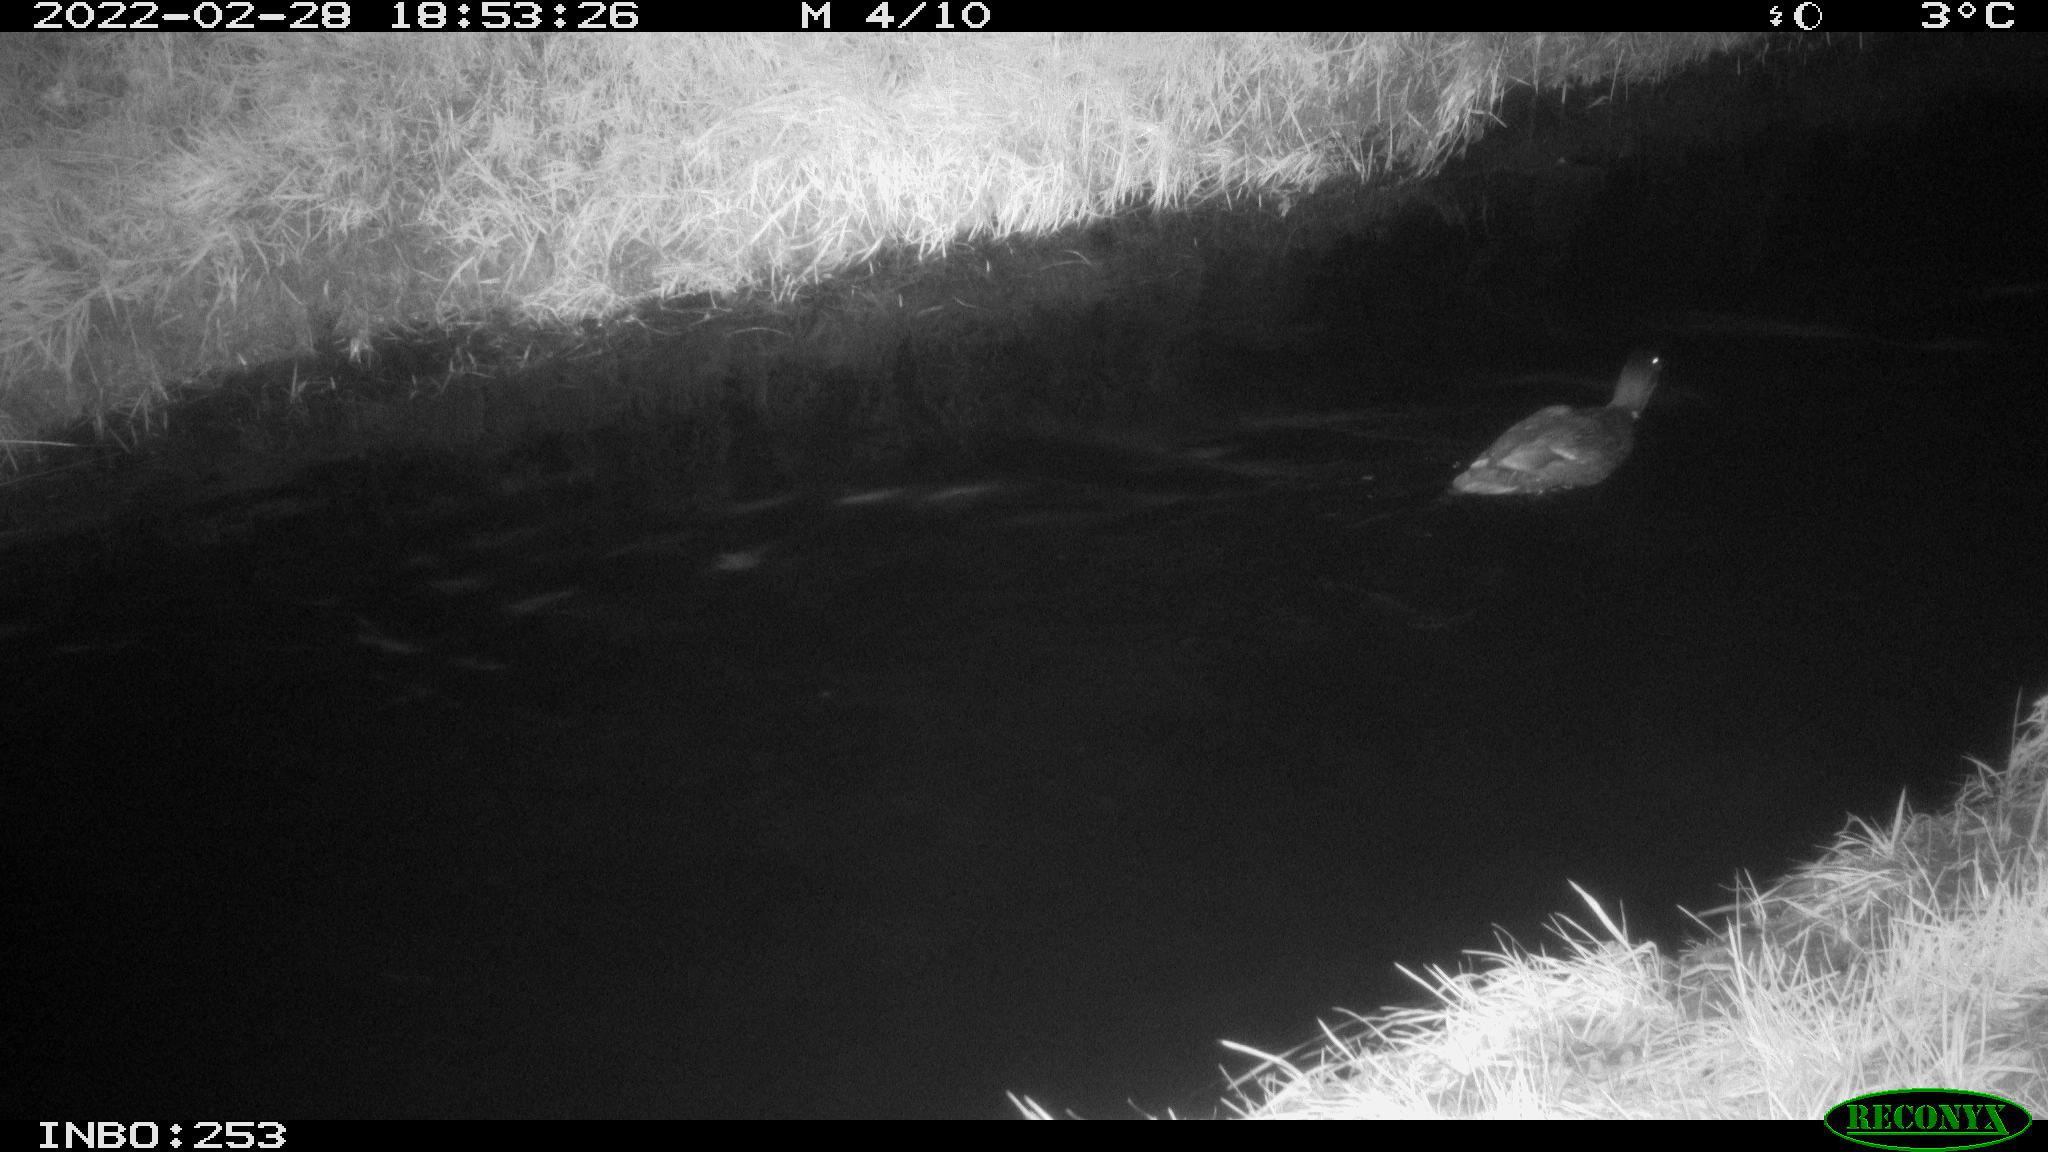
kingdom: Animalia
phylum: Chordata
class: Aves
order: Anseriformes
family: Anatidae
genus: Anas
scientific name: Anas platyrhynchos
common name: Mallard
